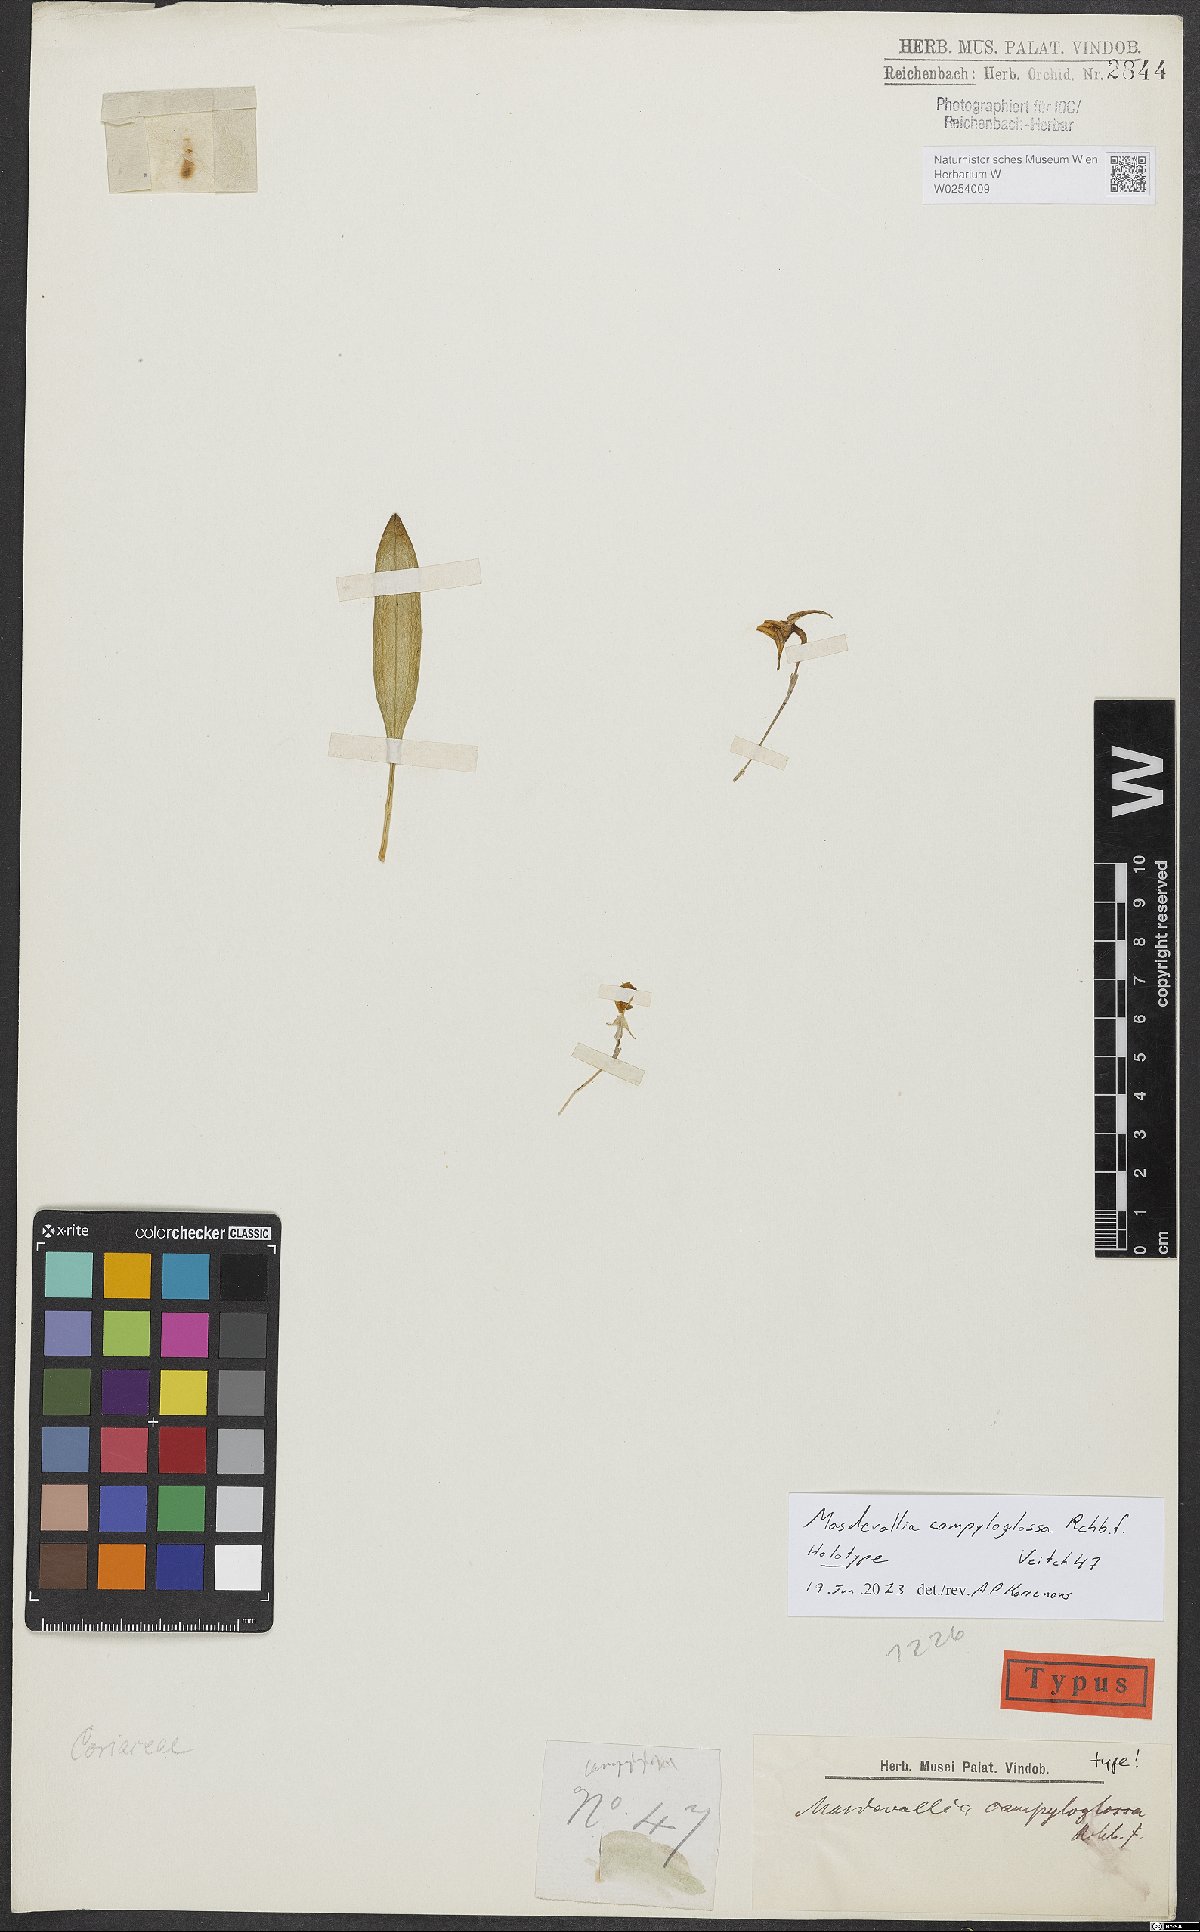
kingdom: Plantae
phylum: Tracheophyta
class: Liliopsida
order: Asparagales
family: Orchidaceae
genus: Masdevallia
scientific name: Masdevallia campyloglossa
